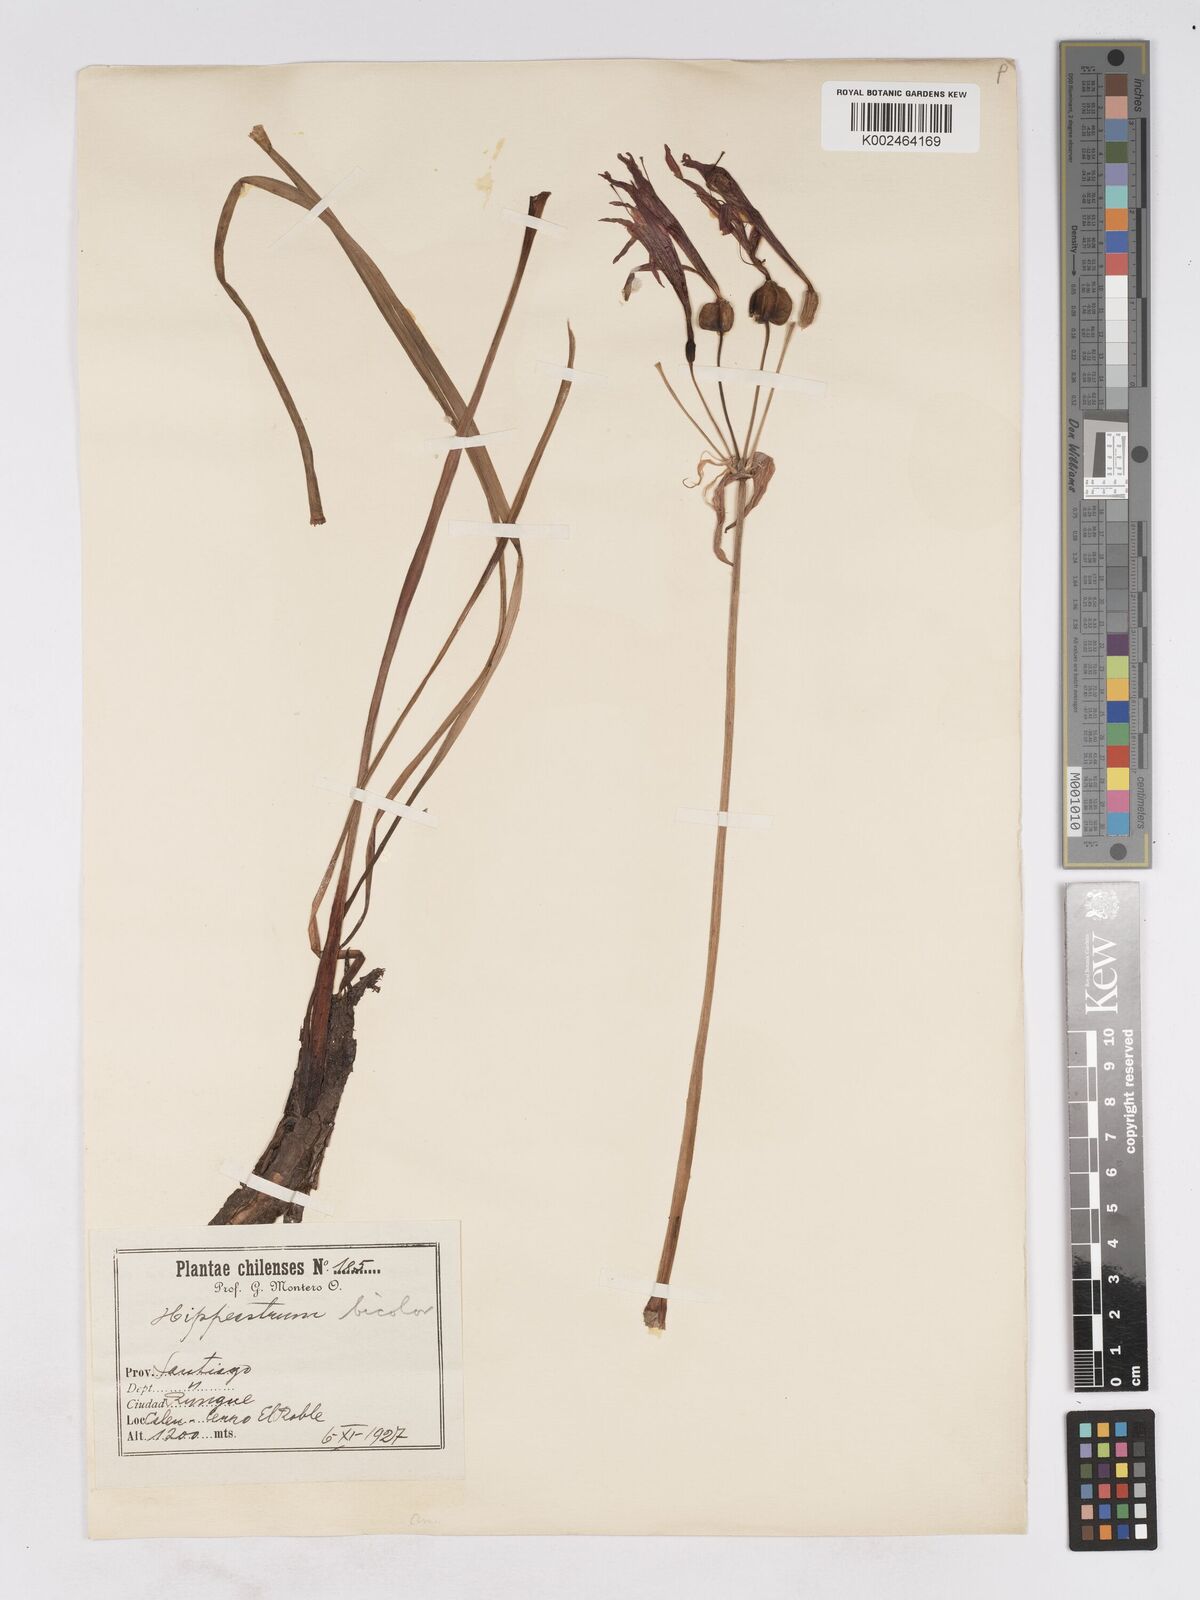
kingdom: Plantae
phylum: Tracheophyta
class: Liliopsida
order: Asparagales
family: Amaryllidaceae
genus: Eustephia
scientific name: Eustephia coccinea
